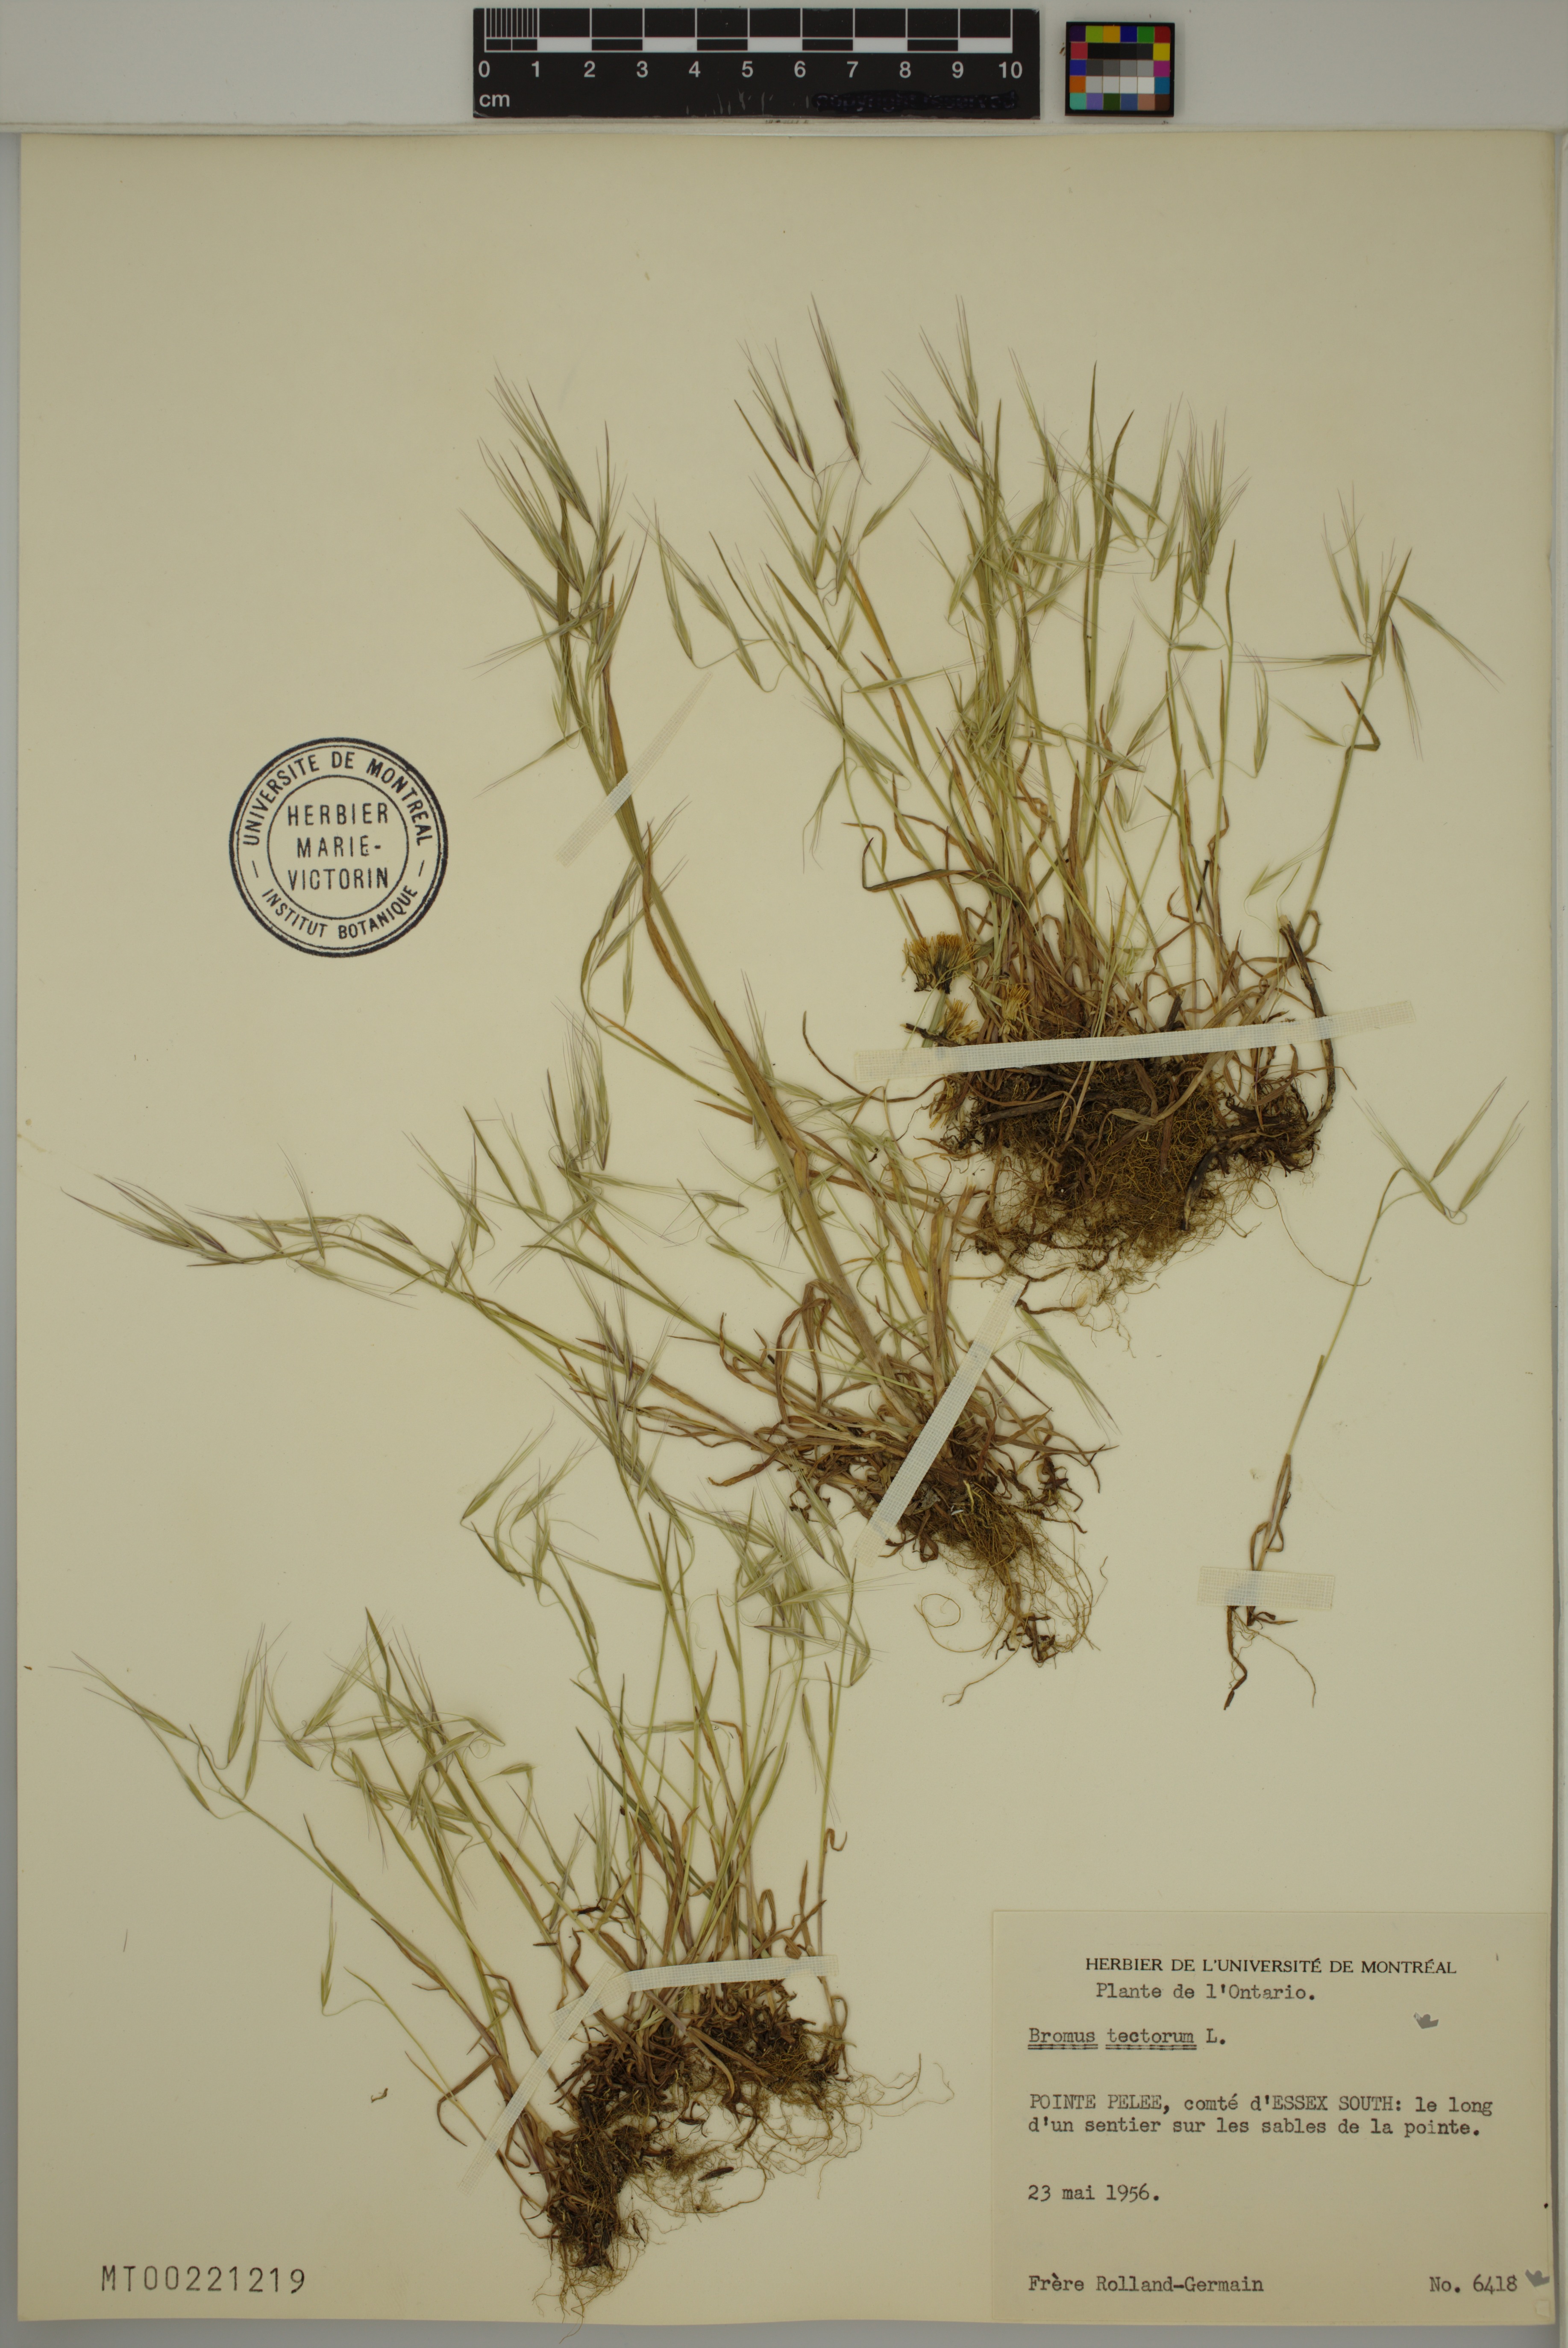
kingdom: Plantae
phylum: Tracheophyta
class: Liliopsida
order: Poales
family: Poaceae
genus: Bromus
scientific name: Bromus tectorum
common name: Cheatgrass
